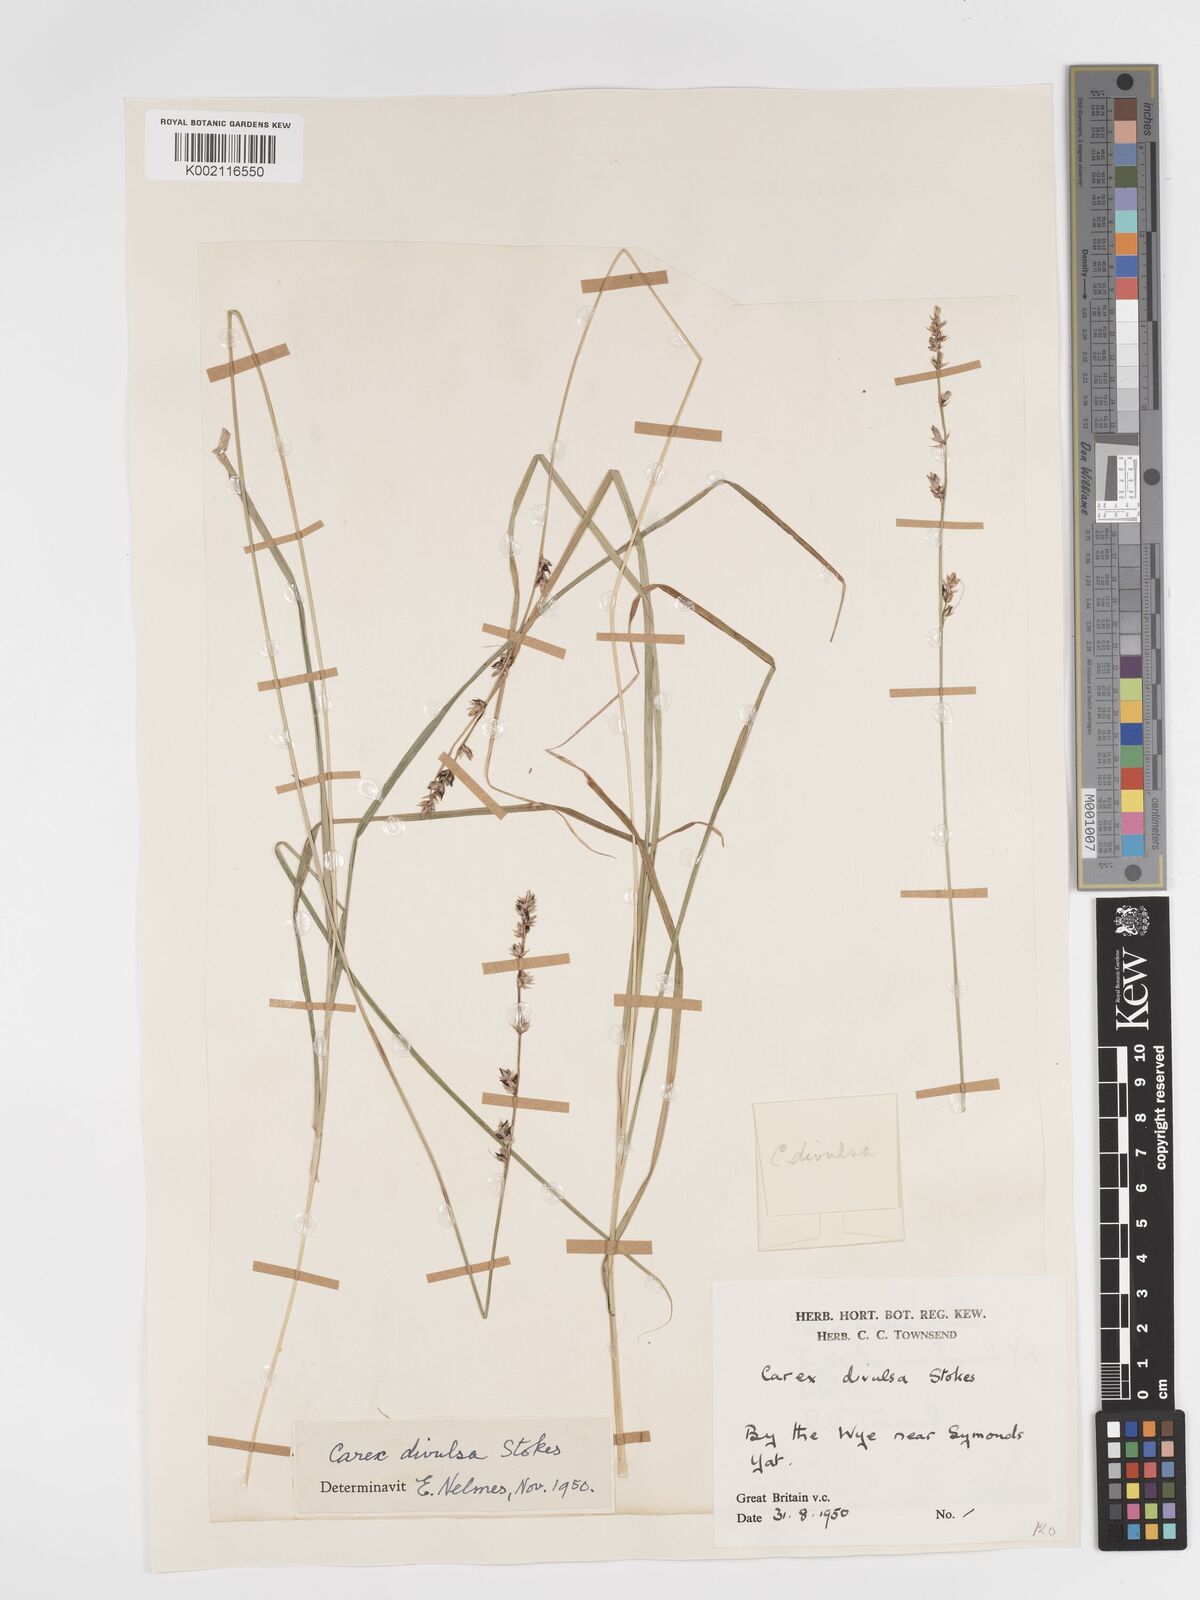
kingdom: Plantae
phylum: Tracheophyta
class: Liliopsida
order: Poales
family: Cyperaceae
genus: Carex
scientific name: Carex divulsa
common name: Grassland sedge
